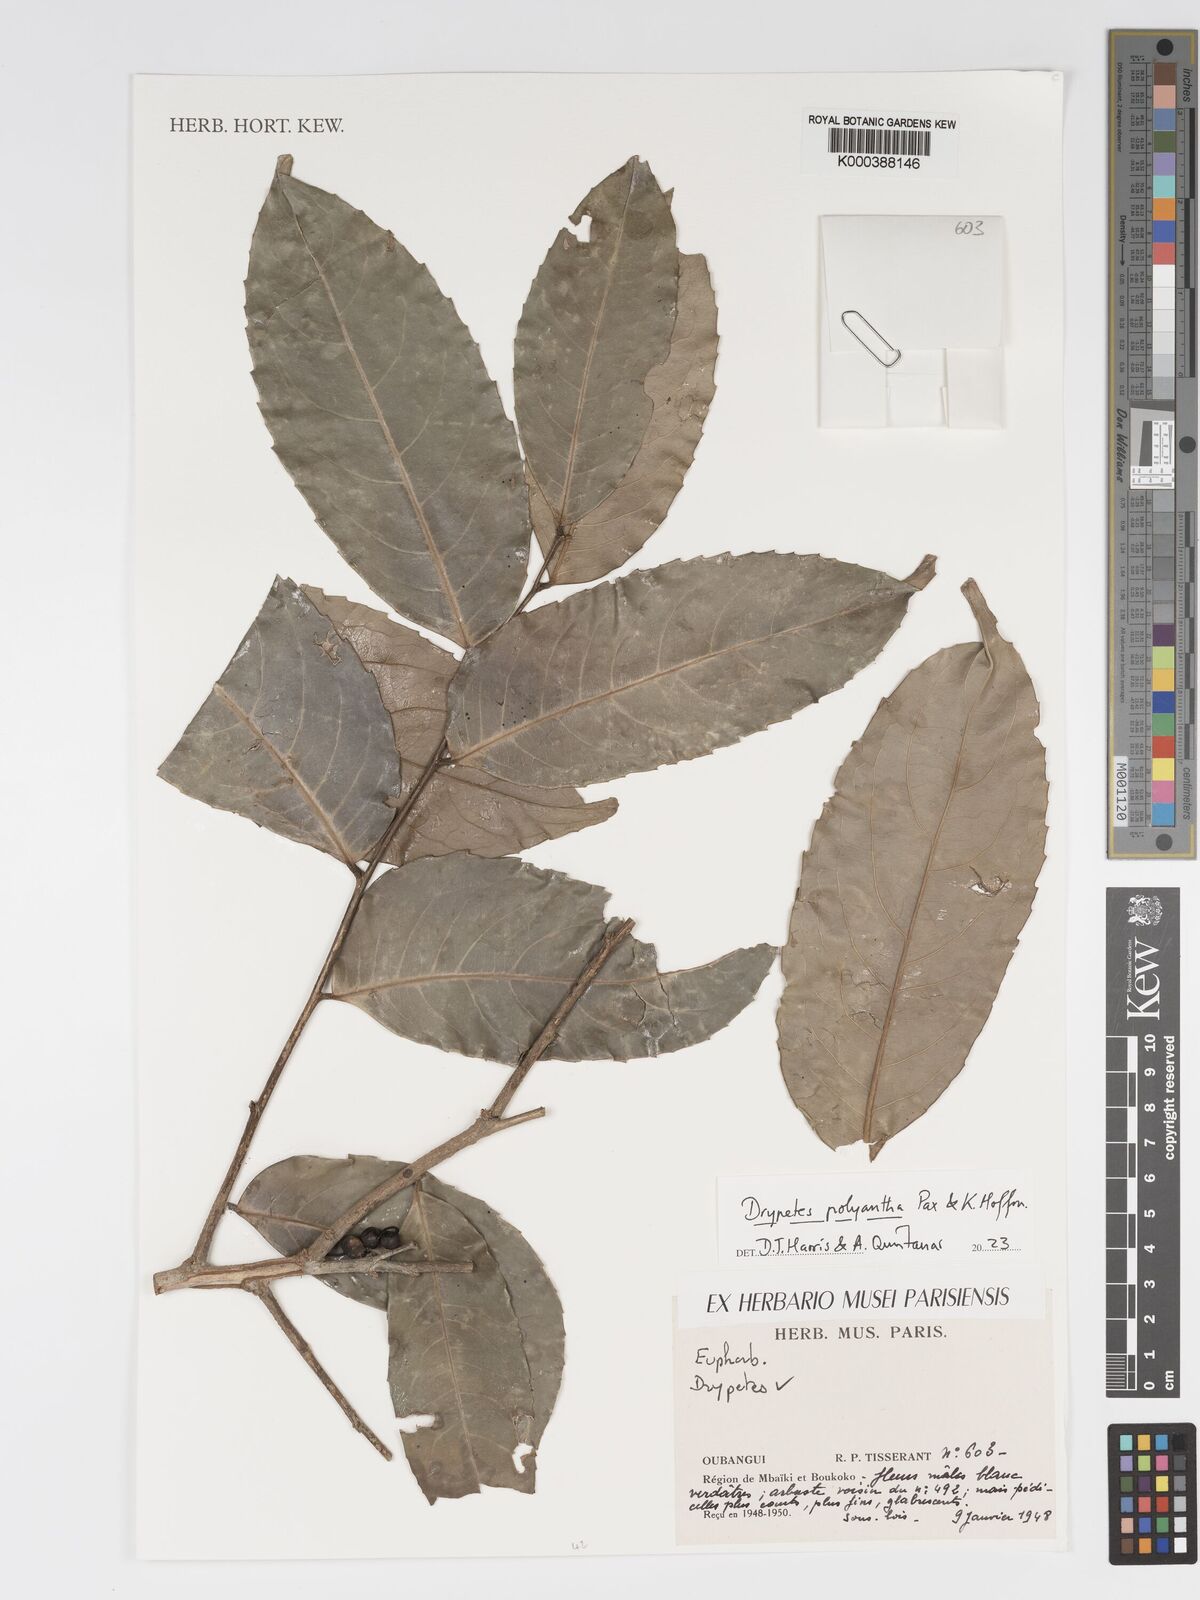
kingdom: Plantae
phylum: Tracheophyta
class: Magnoliopsida
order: Malpighiales
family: Putranjivaceae
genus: Drypetes
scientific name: Drypetes polyantha
